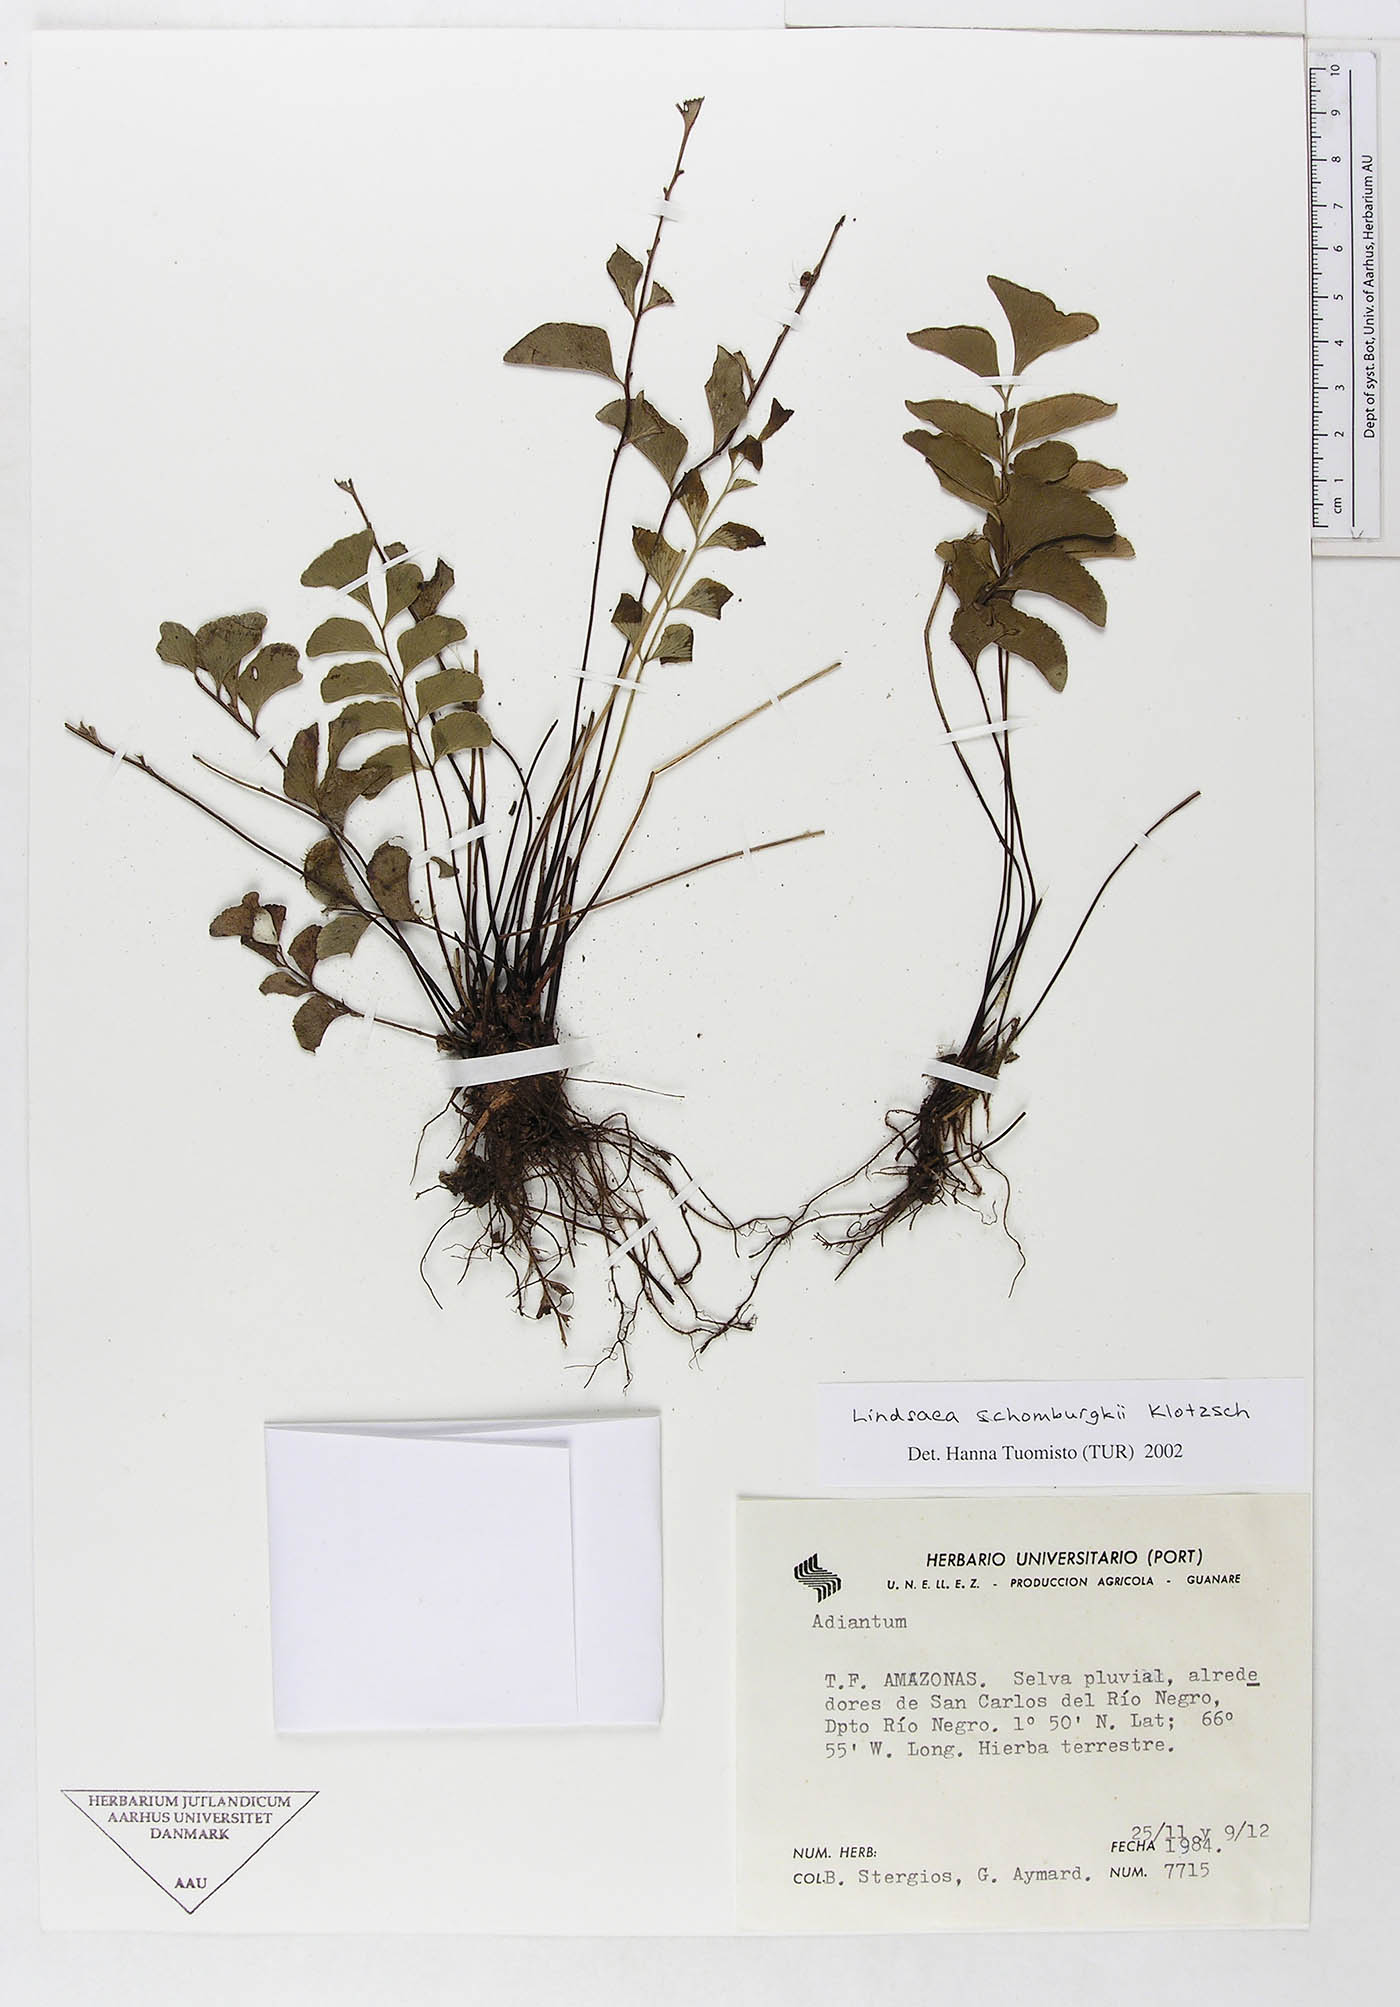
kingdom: Plantae
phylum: Tracheophyta
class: Polypodiopsida
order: Polypodiales
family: Dennstaedtiaceae
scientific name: Dennstaedtiaceae
